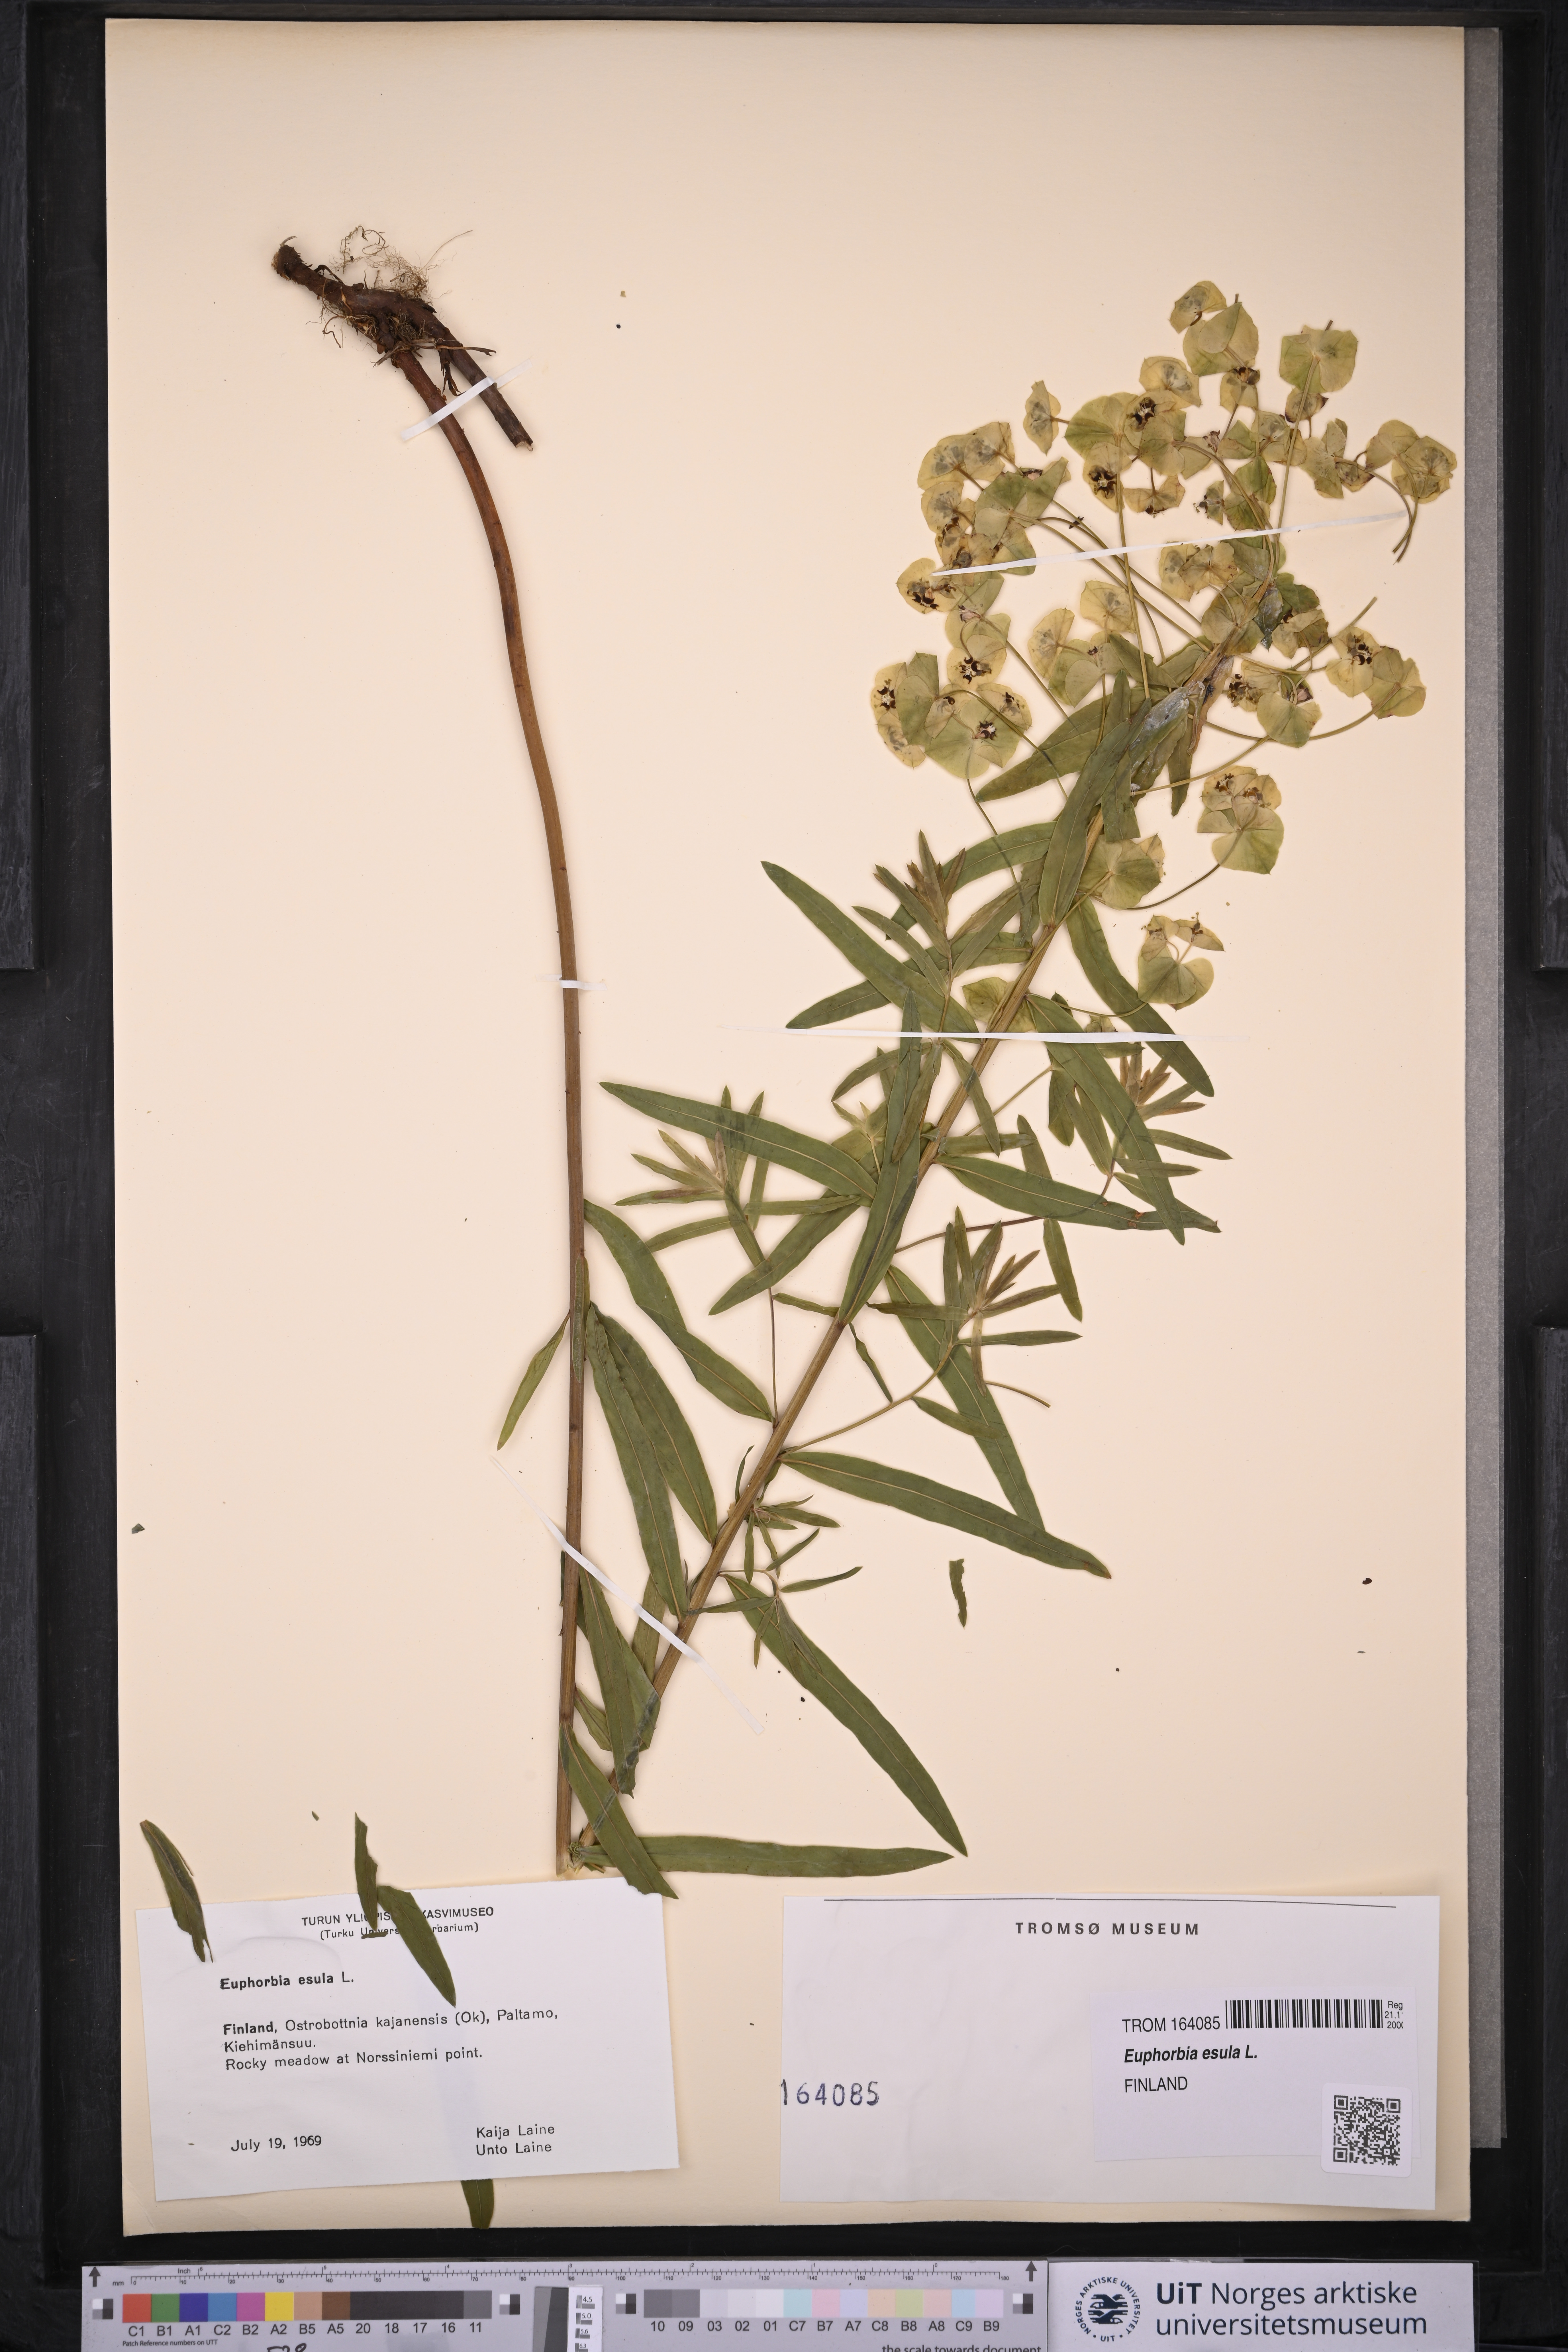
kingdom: Plantae
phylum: Tracheophyta
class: Magnoliopsida
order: Malpighiales
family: Euphorbiaceae
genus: Euphorbia
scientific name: Euphorbia esula
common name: Leafy spurge
